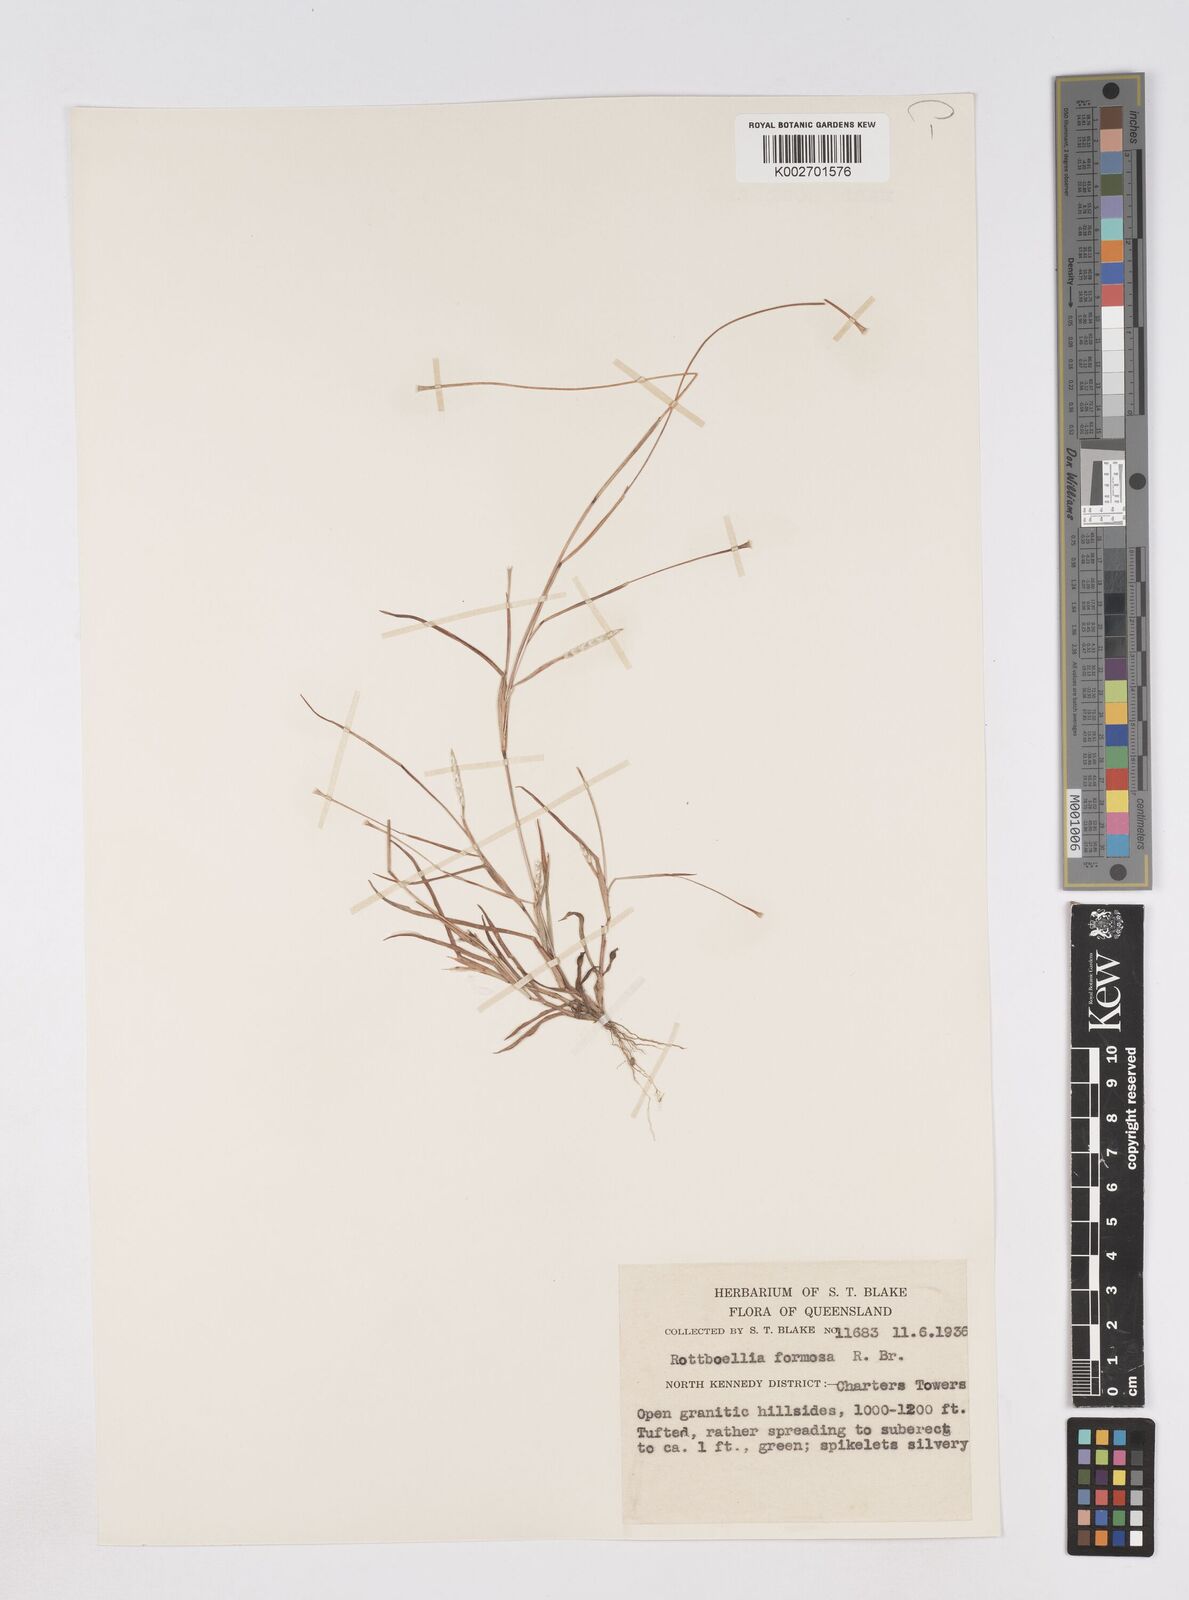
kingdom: Plantae
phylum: Tracheophyta
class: Liliopsida
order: Poales
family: Poaceae
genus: Heteropholis
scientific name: Heteropholis
